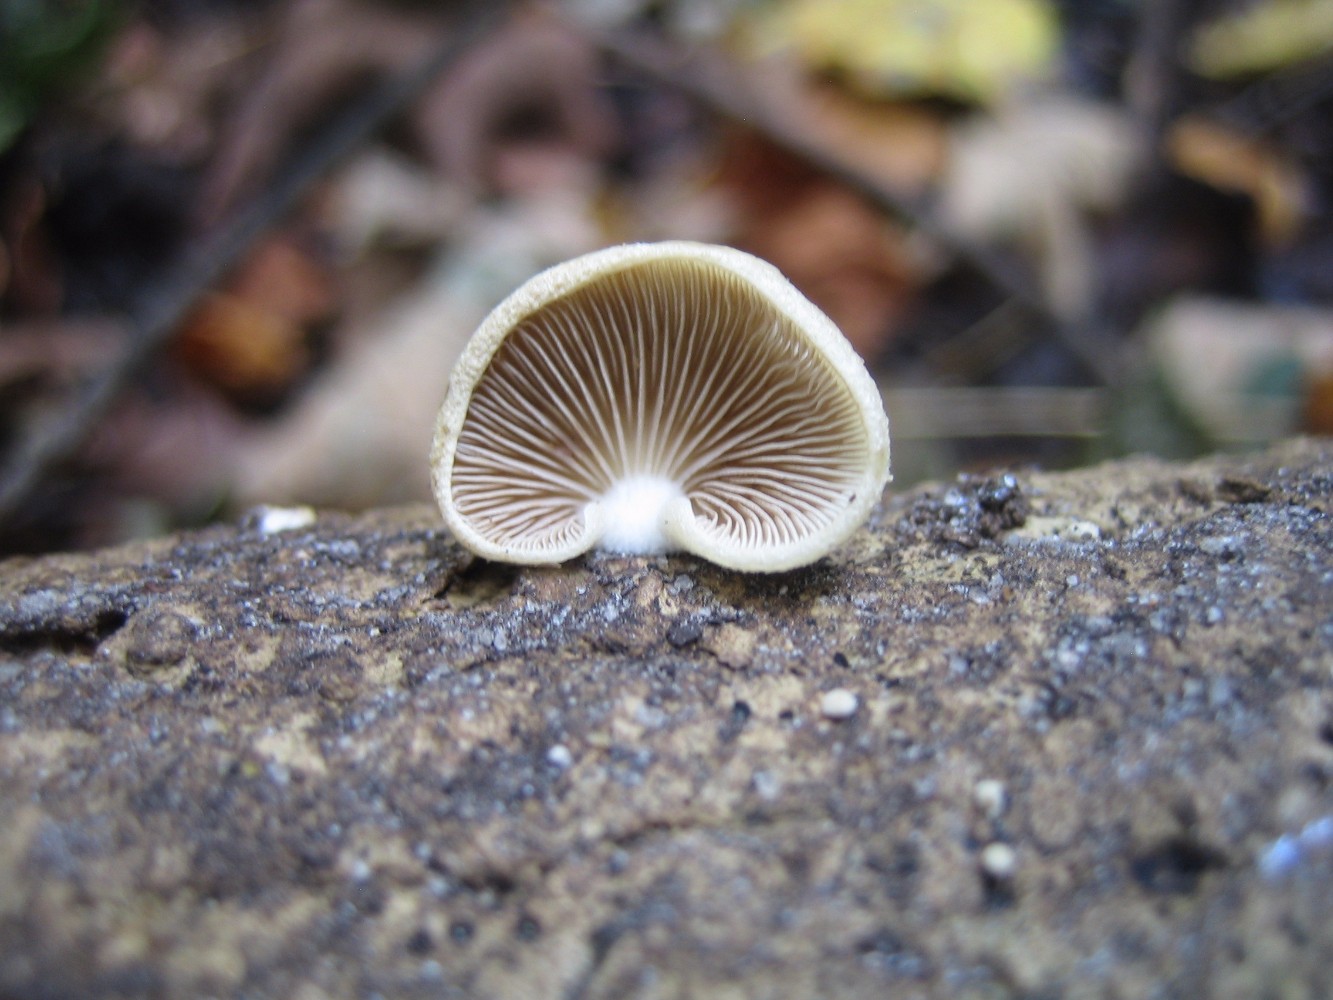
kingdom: Fungi
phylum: Basidiomycota
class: Agaricomycetes
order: Agaricales
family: Crepidotaceae
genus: Crepidotus
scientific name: Crepidotus mollis
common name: blød muslingesvamp
